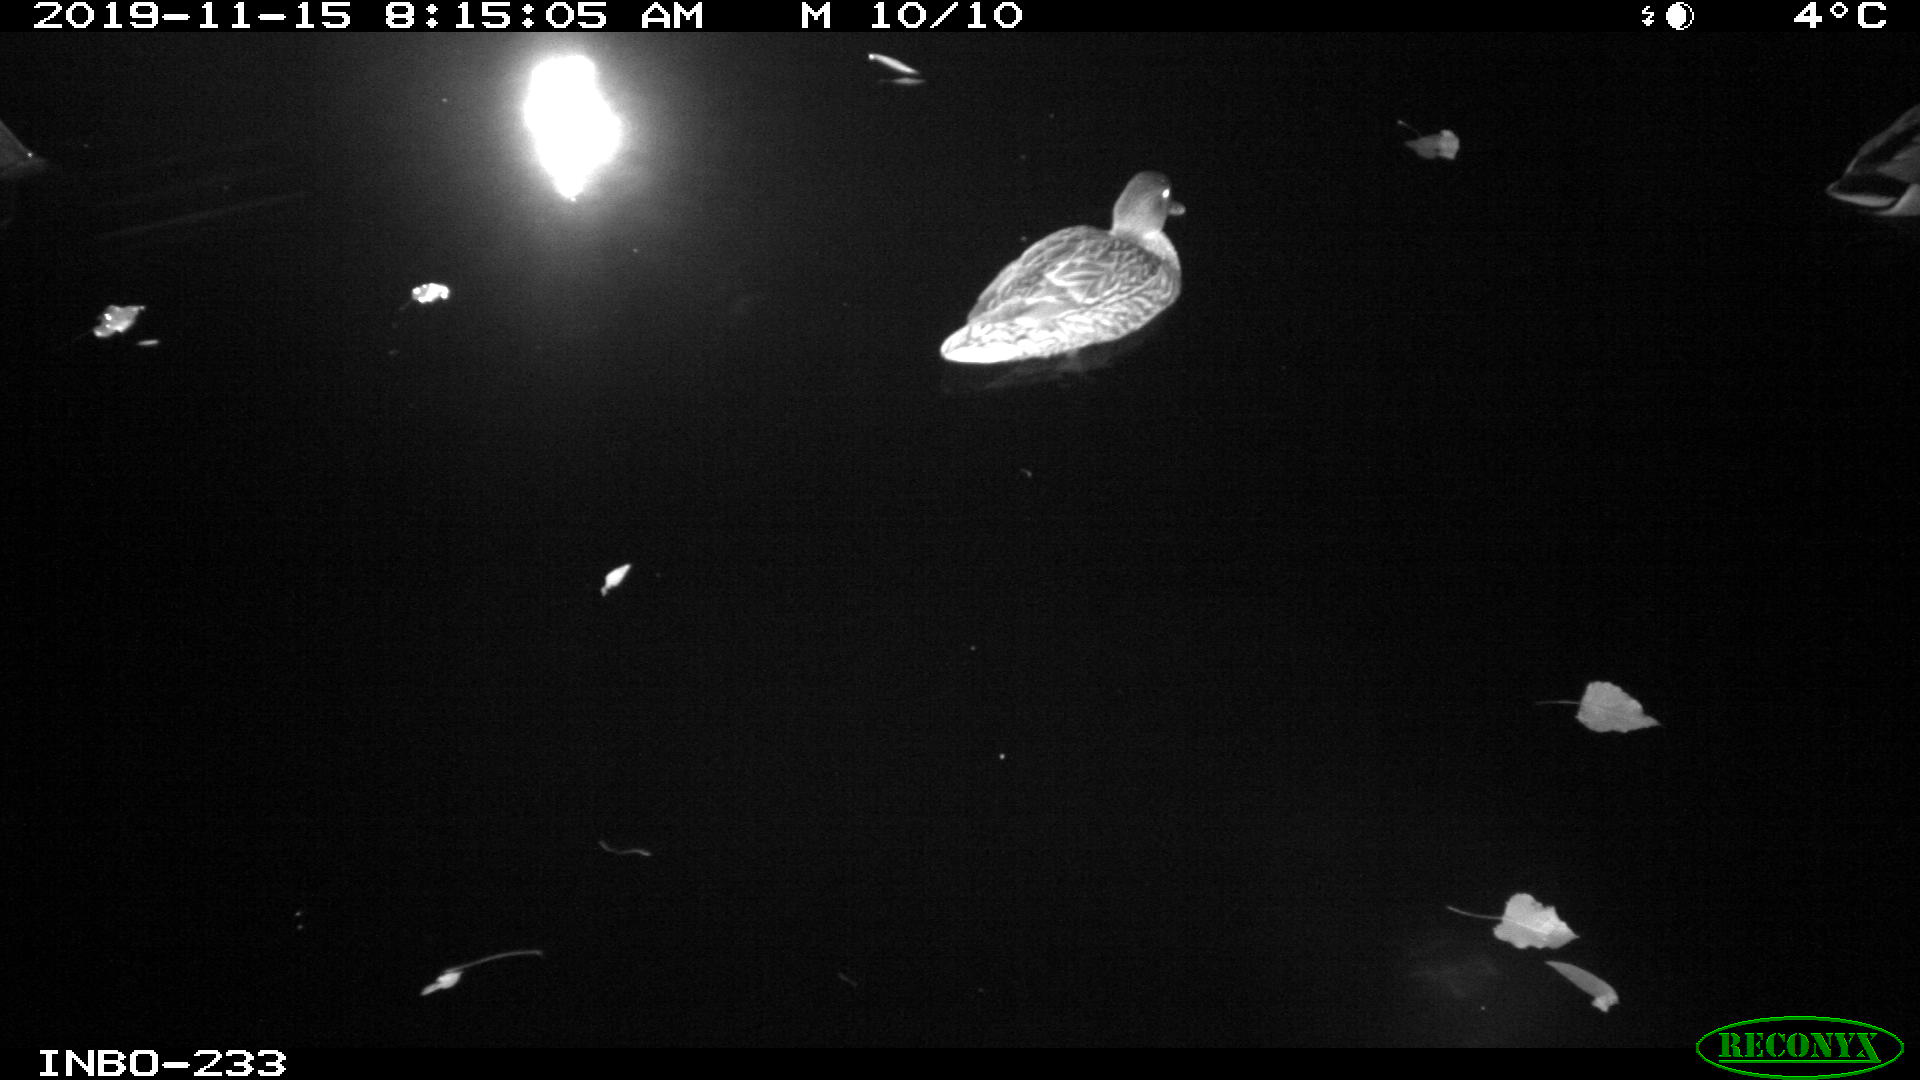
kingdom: Animalia
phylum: Chordata
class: Aves
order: Anseriformes
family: Anatidae
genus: Anas
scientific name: Anas platyrhynchos
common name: Mallard
